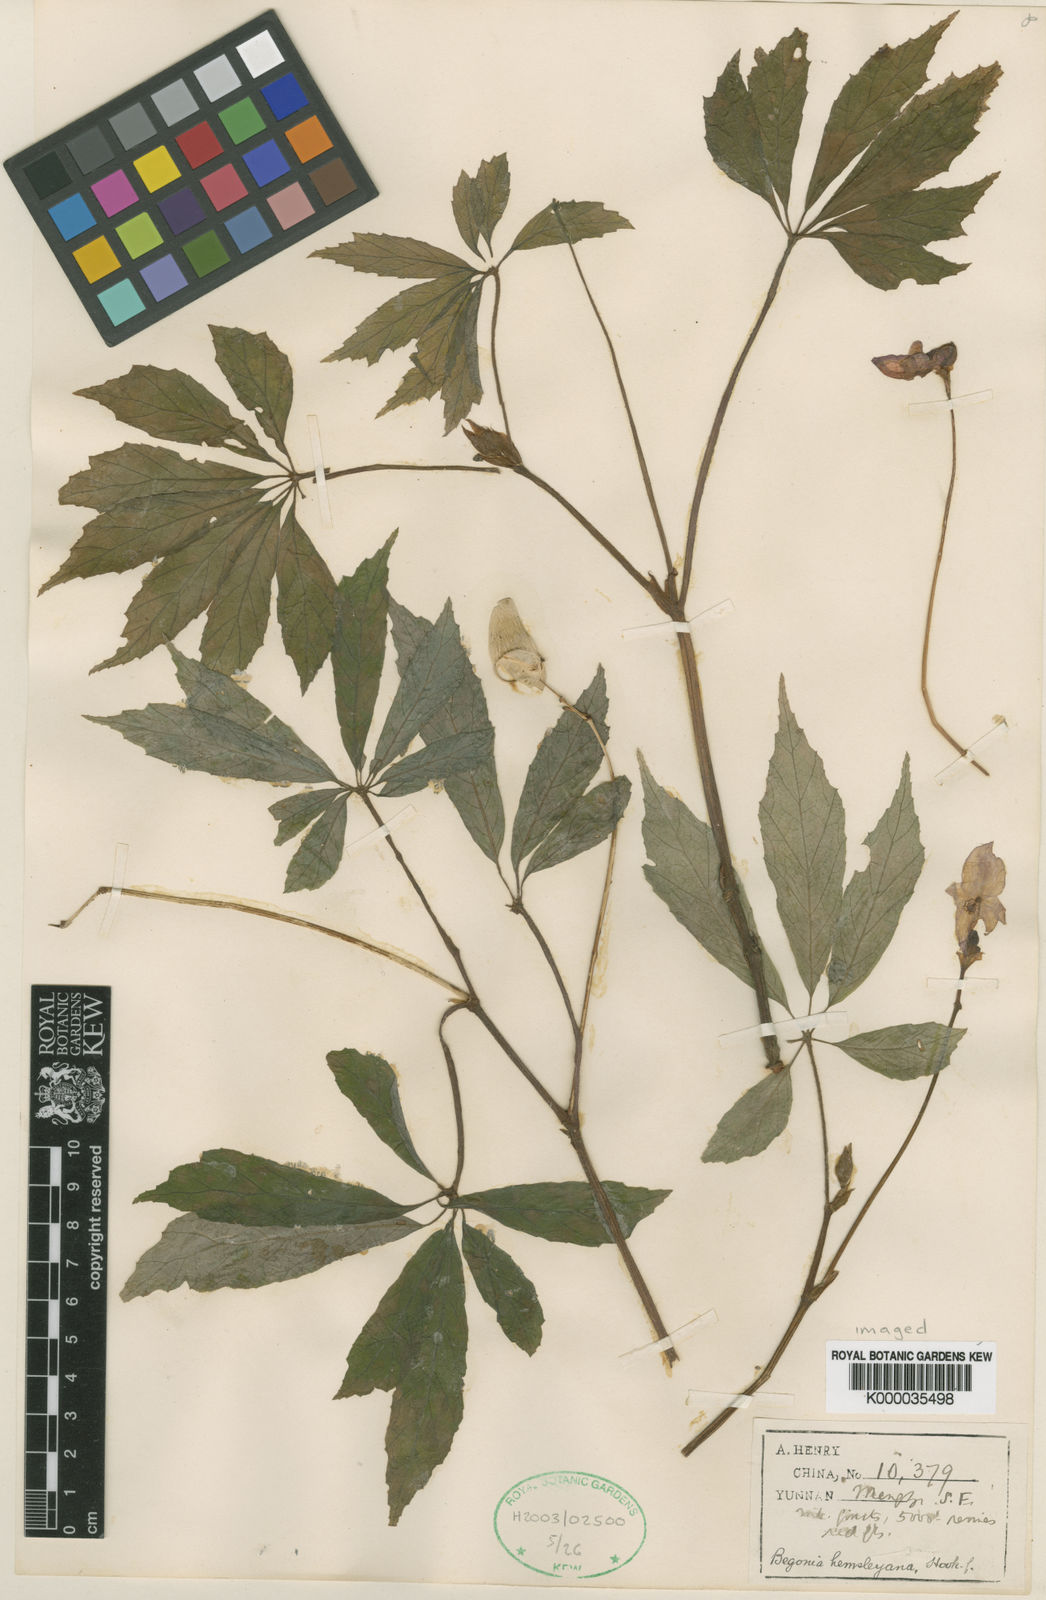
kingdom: Plantae
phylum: Tracheophyta
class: Magnoliopsida
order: Cucurbitales
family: Begoniaceae
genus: Begonia
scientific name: Begonia hemsleyana
